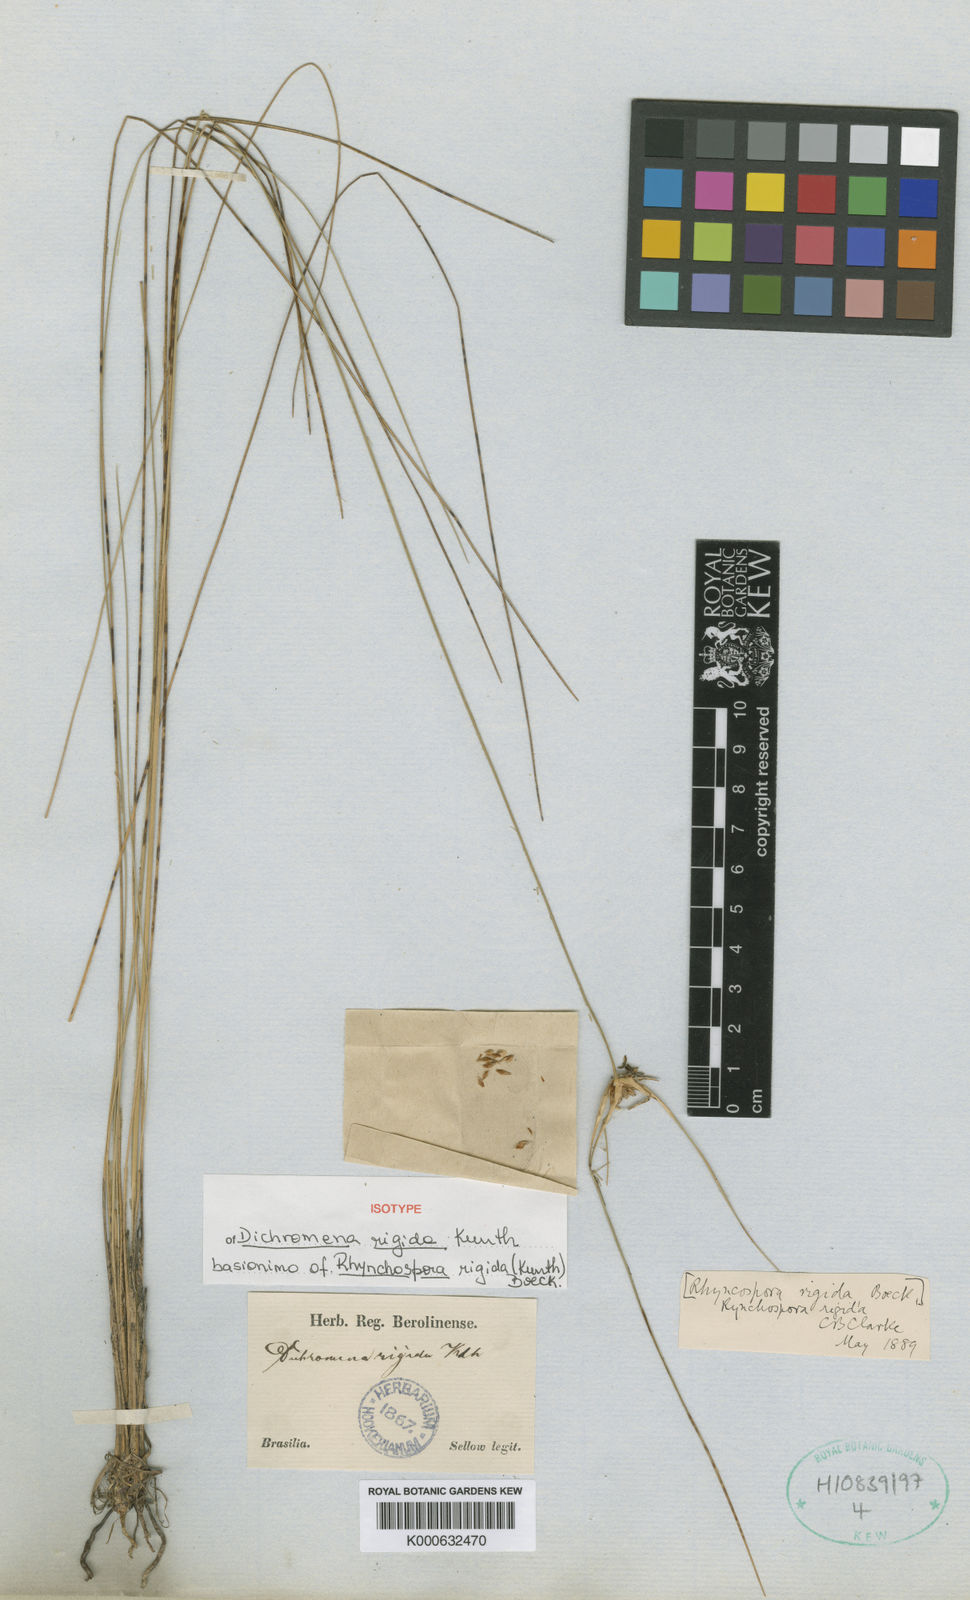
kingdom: Plantae
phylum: Tracheophyta
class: Liliopsida
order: Poales
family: Cyperaceae
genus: Rhynchospora
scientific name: Rhynchospora albobracteata
